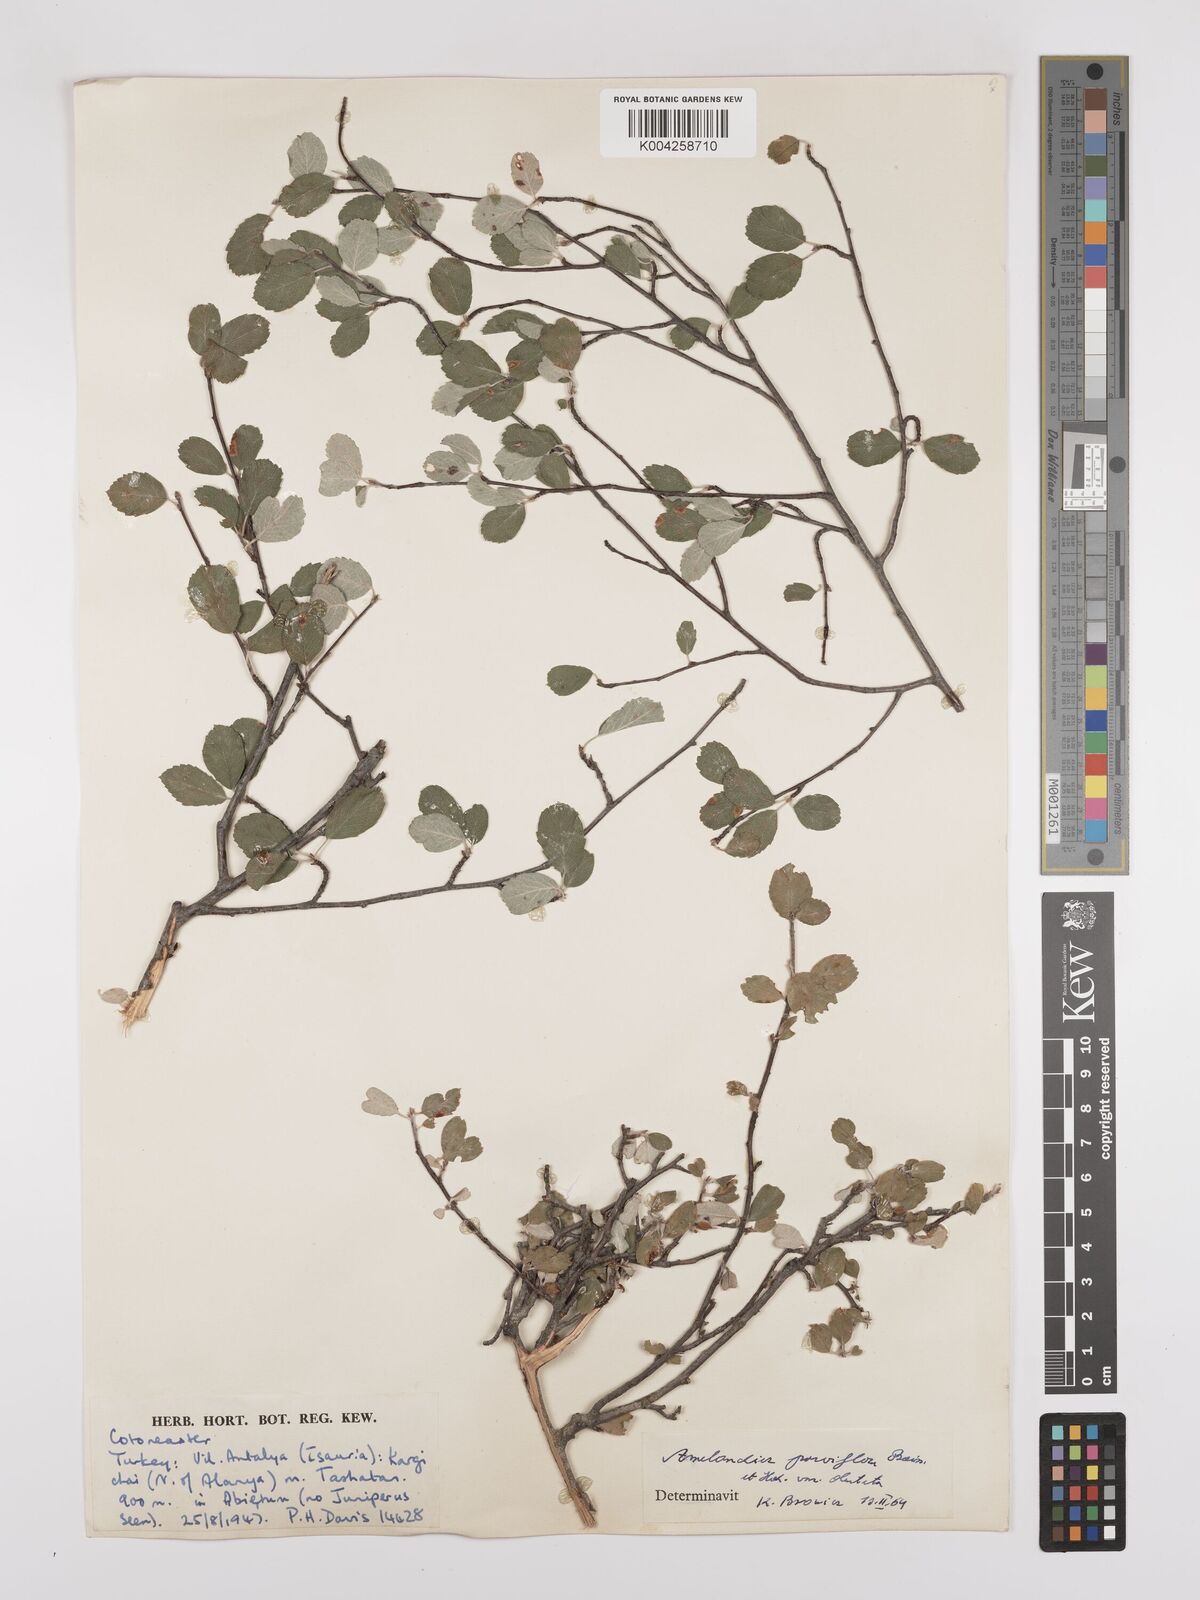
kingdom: Plantae
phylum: Tracheophyta
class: Magnoliopsida
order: Rosales
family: Rosaceae
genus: Amelanchier
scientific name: Amelanchier parviflora
